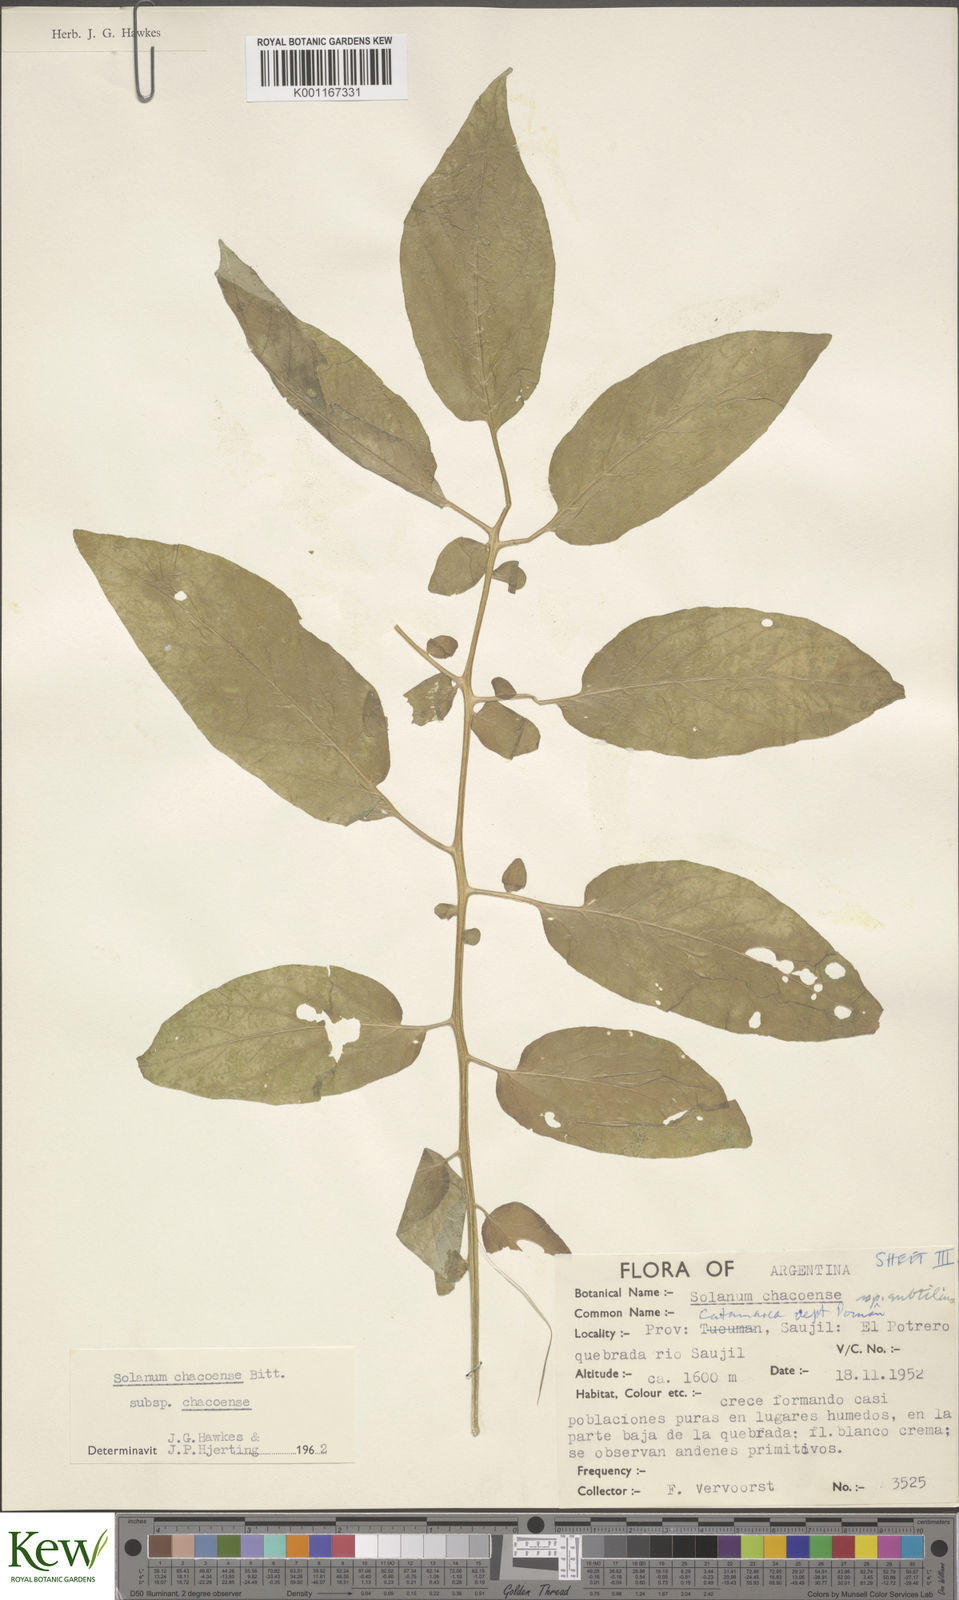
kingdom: Plantae
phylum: Tracheophyta
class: Magnoliopsida
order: Solanales
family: Solanaceae
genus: Solanum
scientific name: Solanum chacoense
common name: Chaco potato
